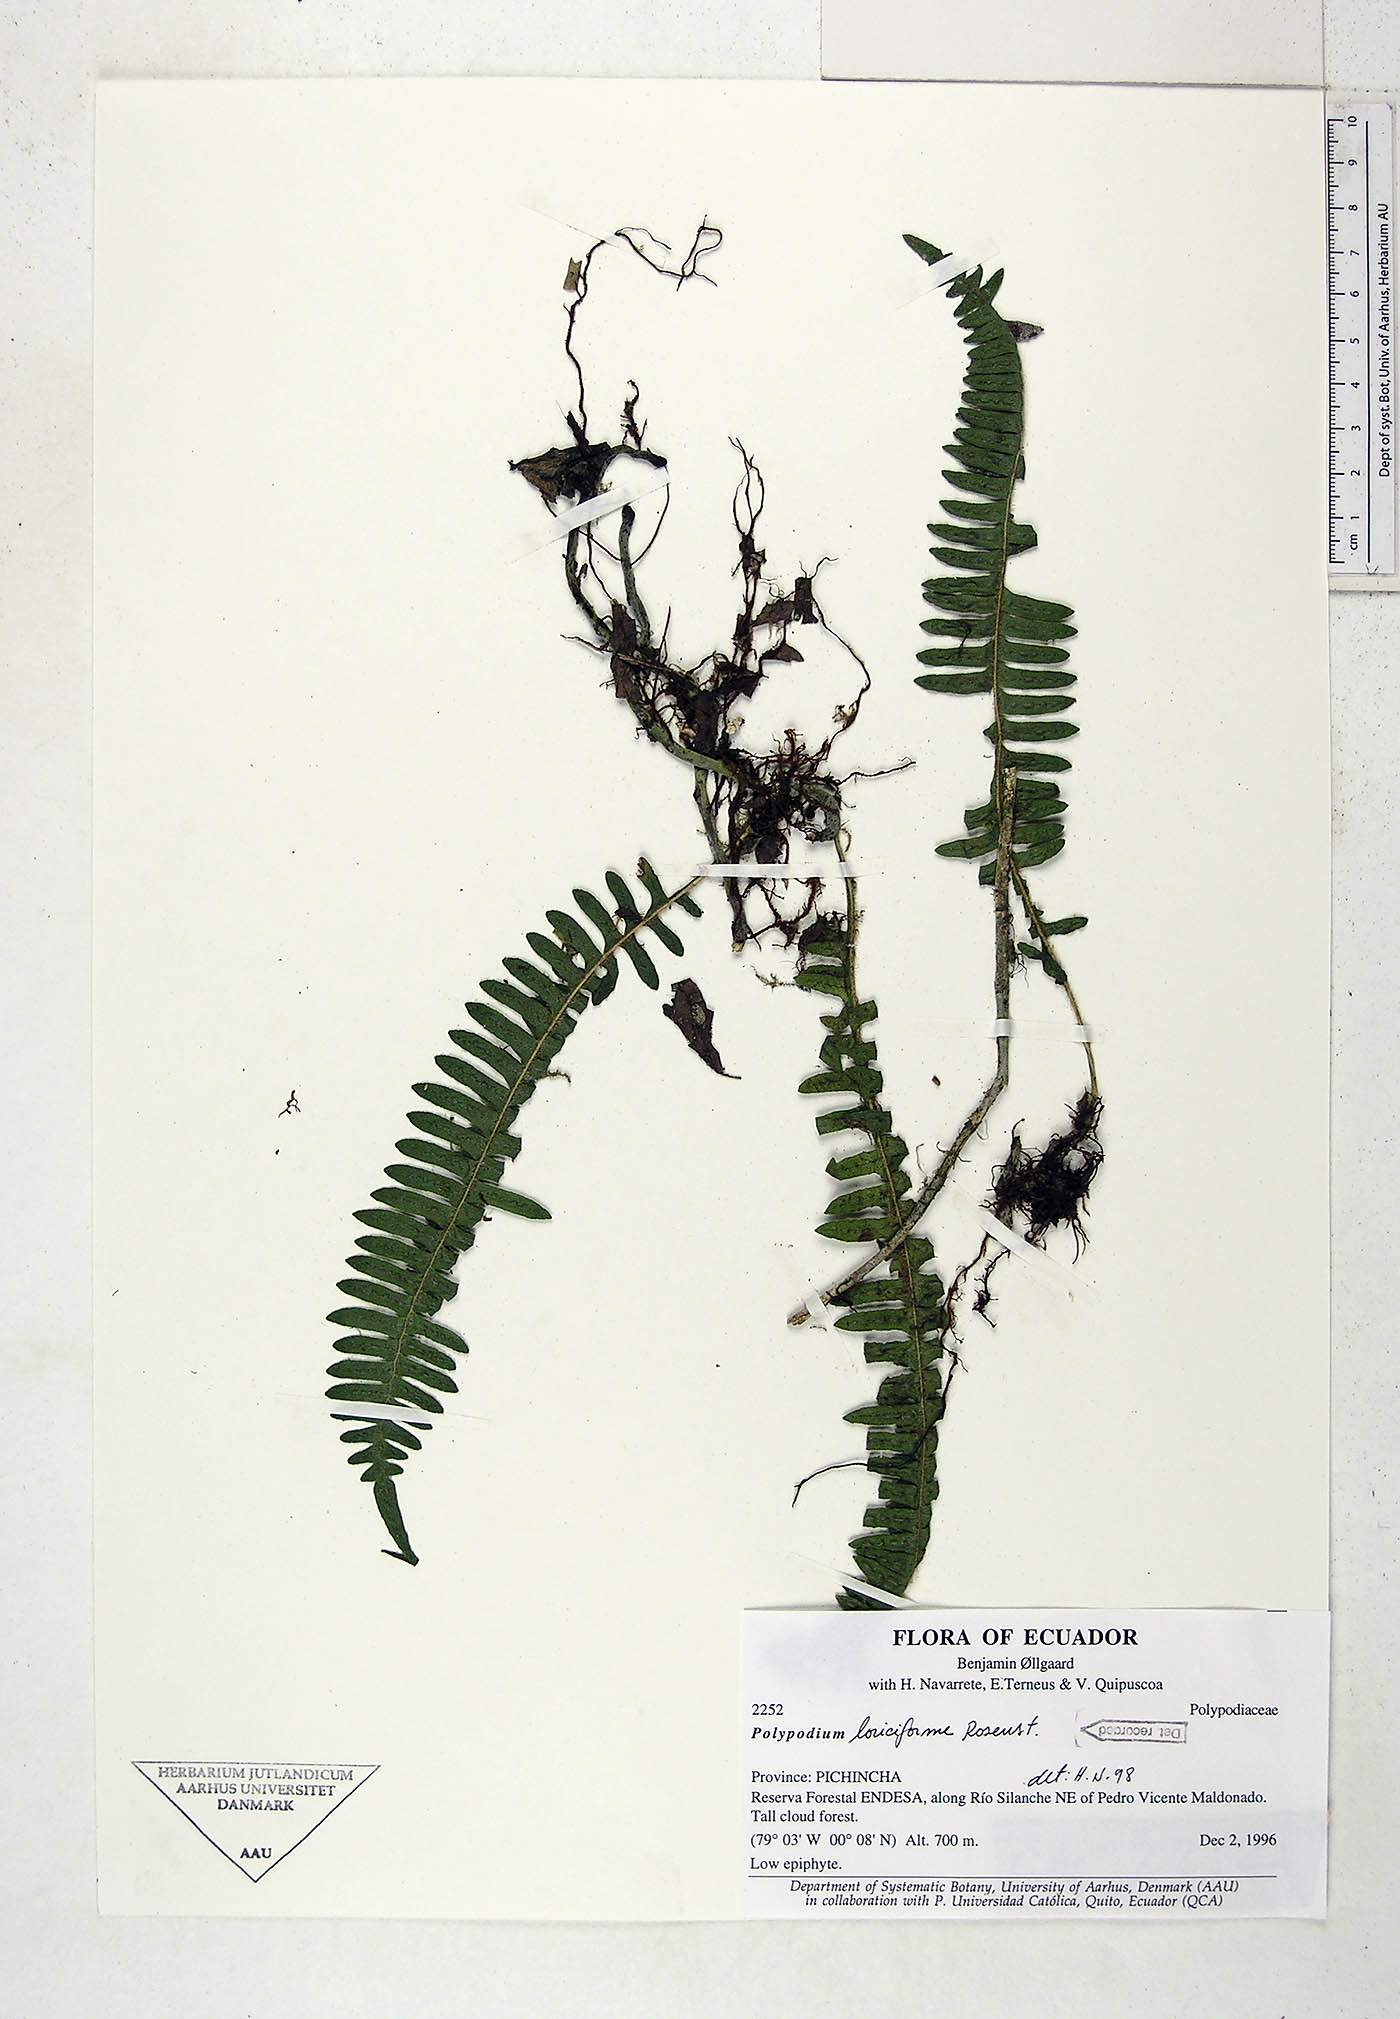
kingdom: Plantae
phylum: Tracheophyta
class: Polypodiopsida
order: Polypodiales
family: Polypodiaceae
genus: Serpocaulon
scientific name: Serpocaulon loriciforme
